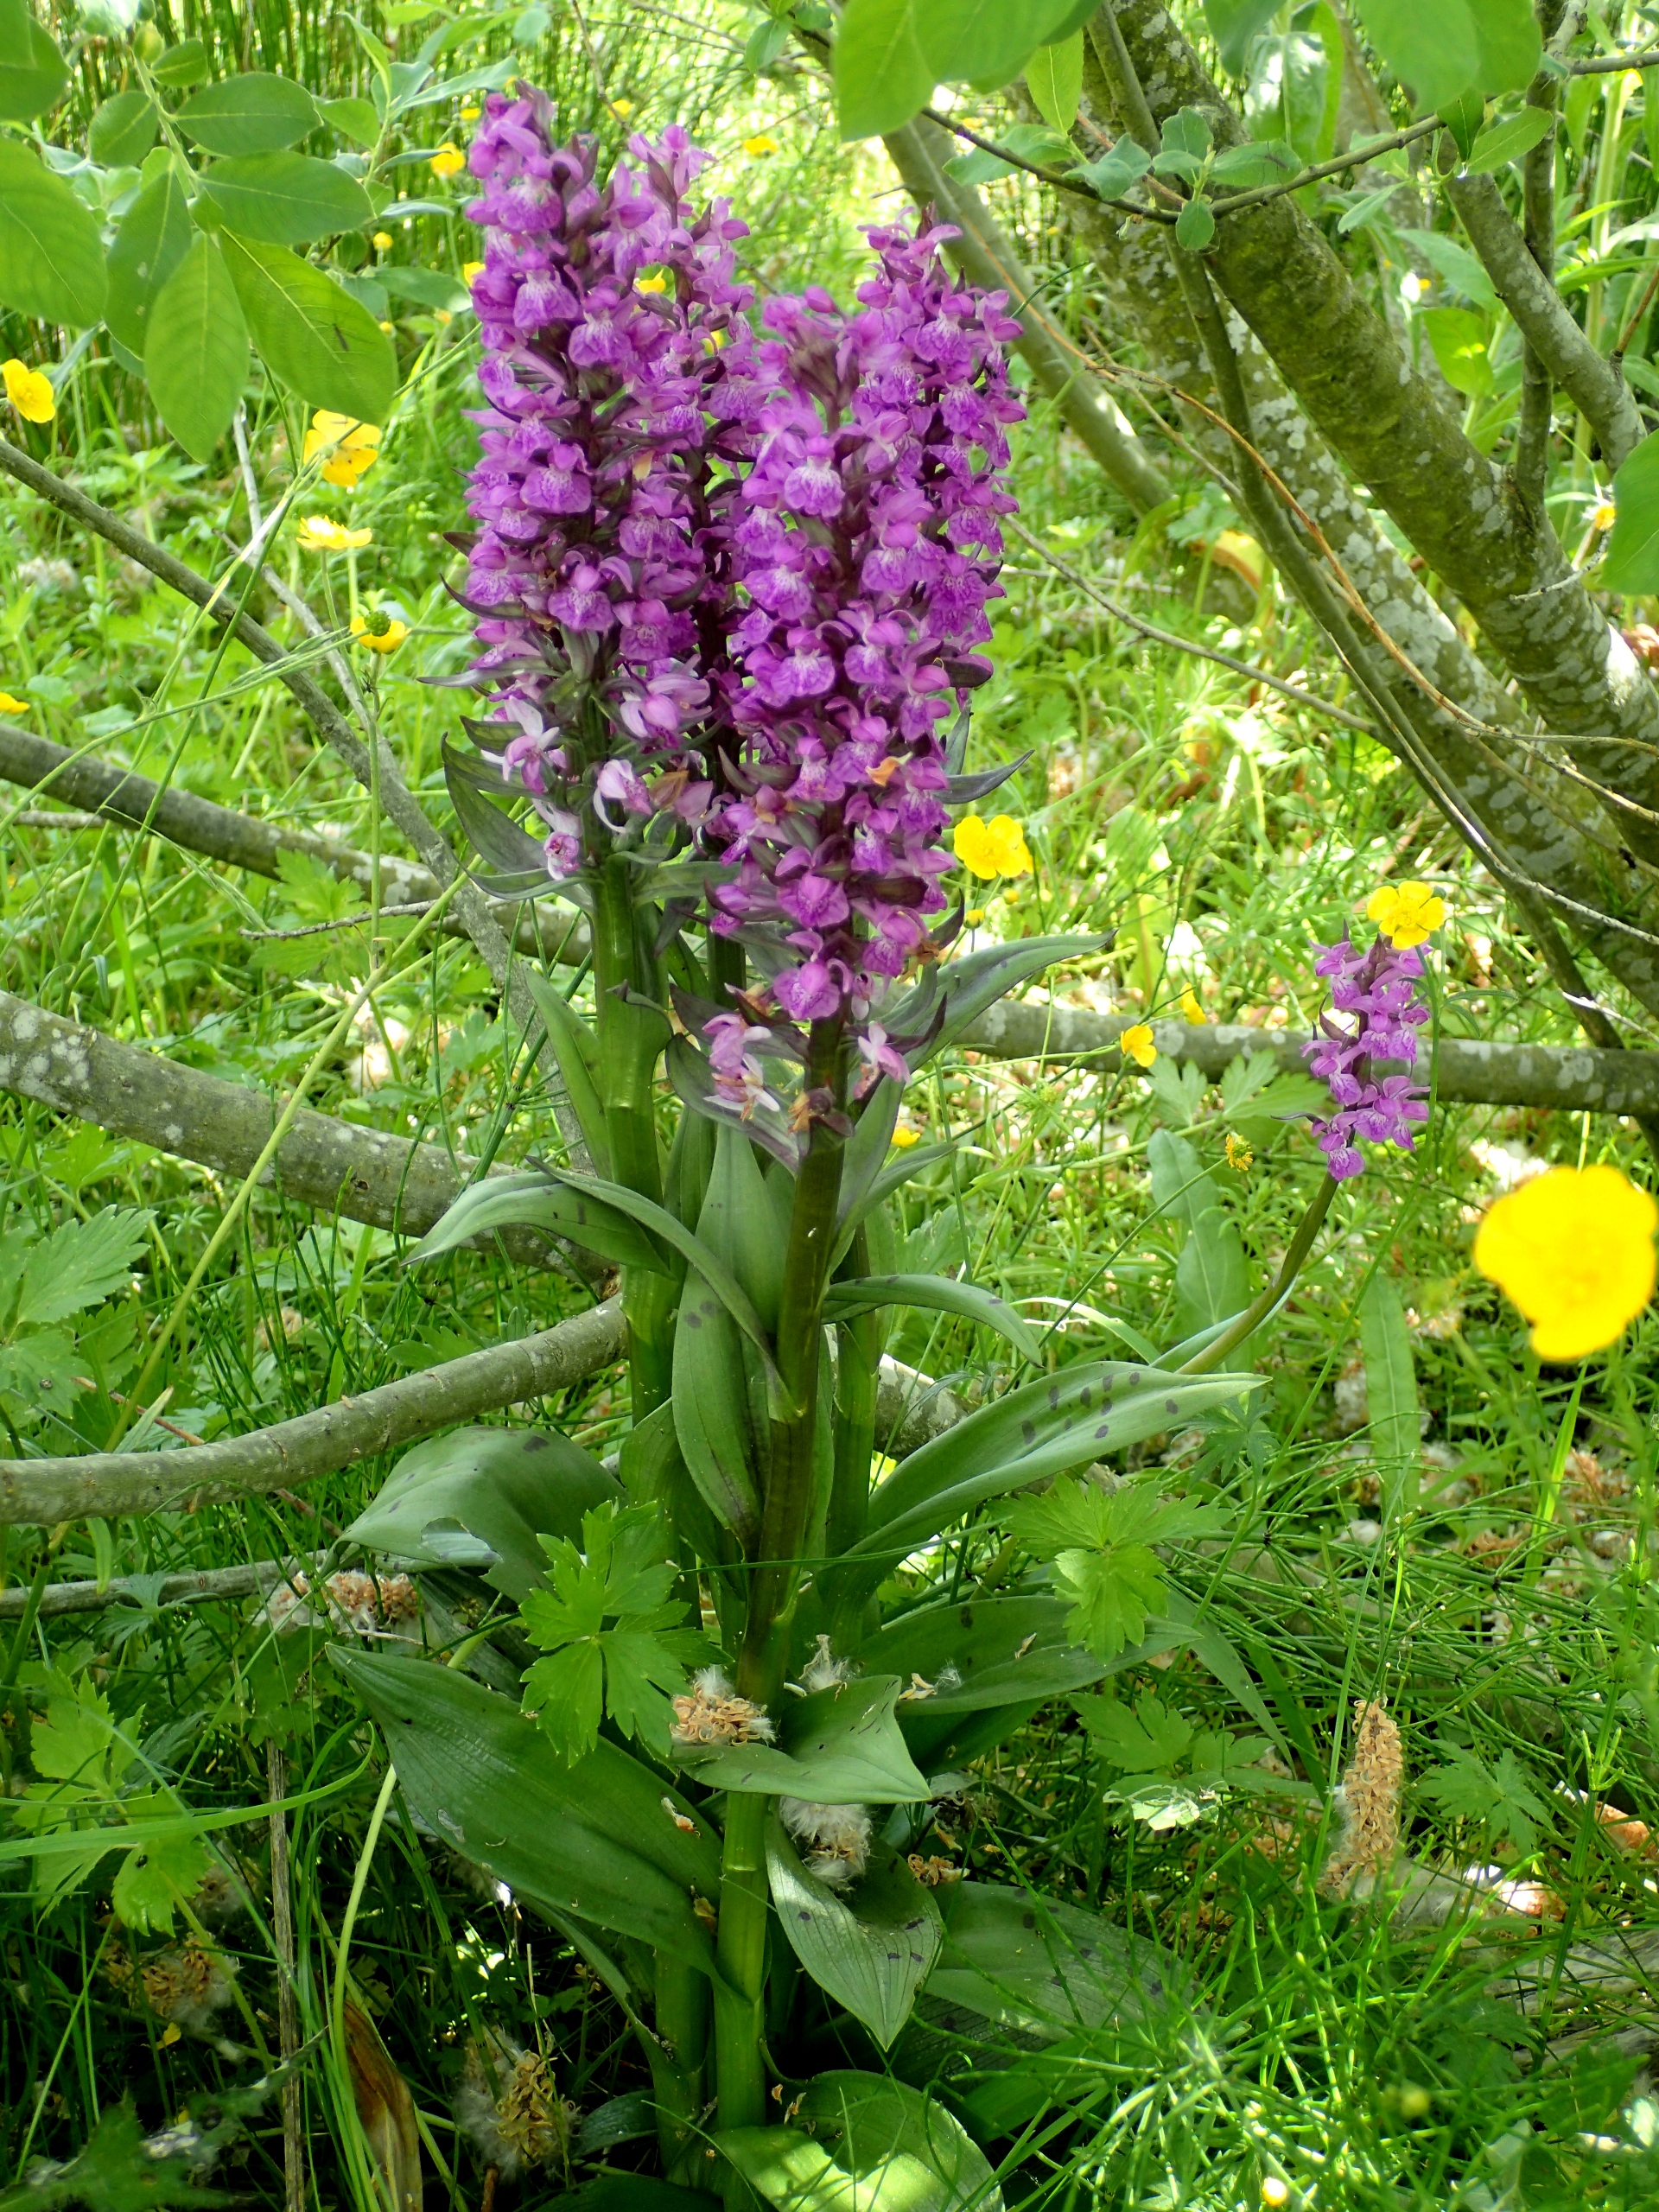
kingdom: Plantae
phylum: Tracheophyta
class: Liliopsida
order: Asparagales
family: Orchidaceae
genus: Dactylorhiza
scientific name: Dactylorhiza majalis
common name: Maj-gøgeurt
